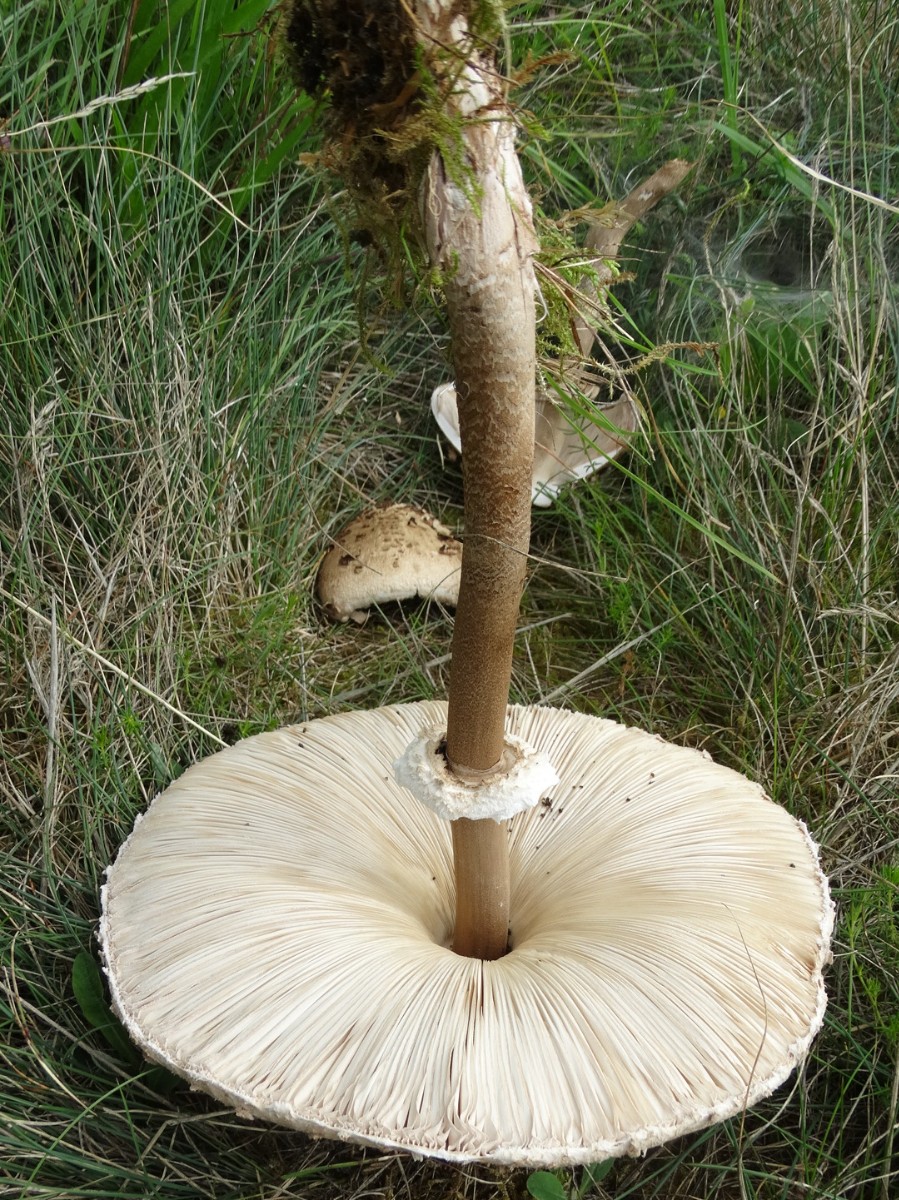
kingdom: Fungi
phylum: Basidiomycota
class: Agaricomycetes
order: Agaricales
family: Agaricaceae
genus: Macrolepiota
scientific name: Macrolepiota procera
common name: stor kæmpeparasolhat
